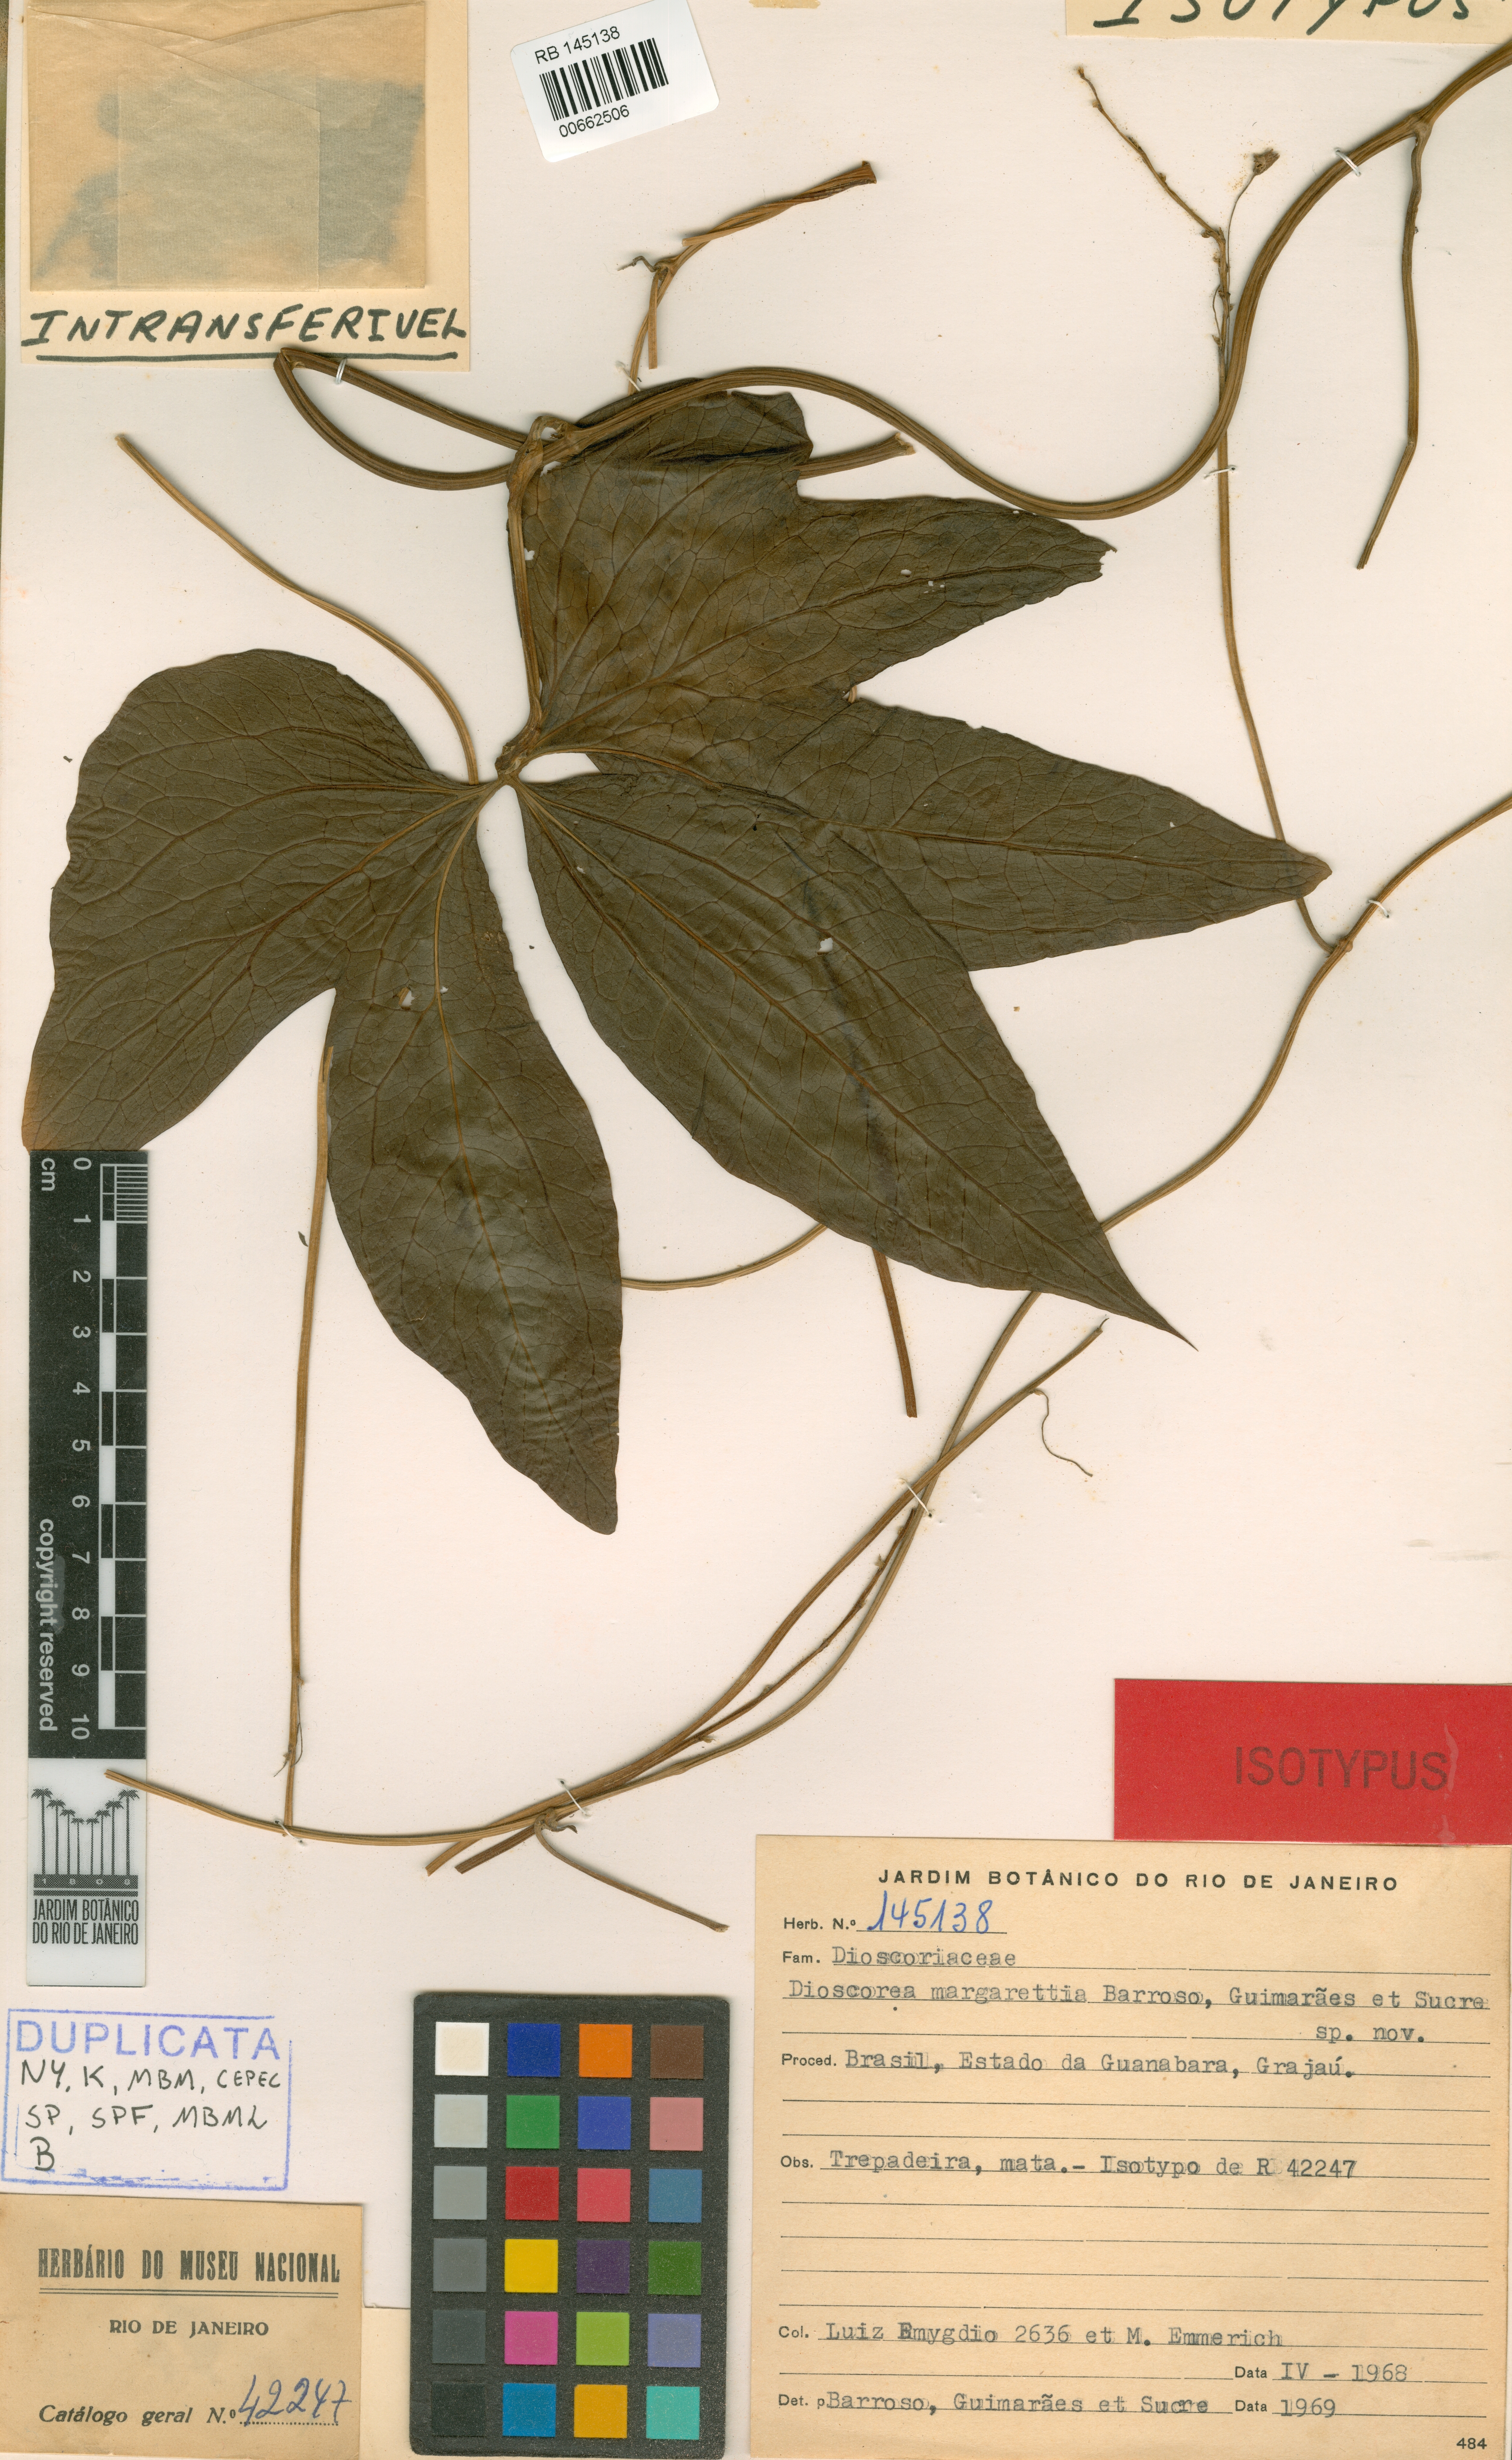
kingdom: Plantae
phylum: Tracheophyta
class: Liliopsida
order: Dioscoreales
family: Dioscoreaceae
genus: Dioscorea
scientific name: Dioscorea margarethia
